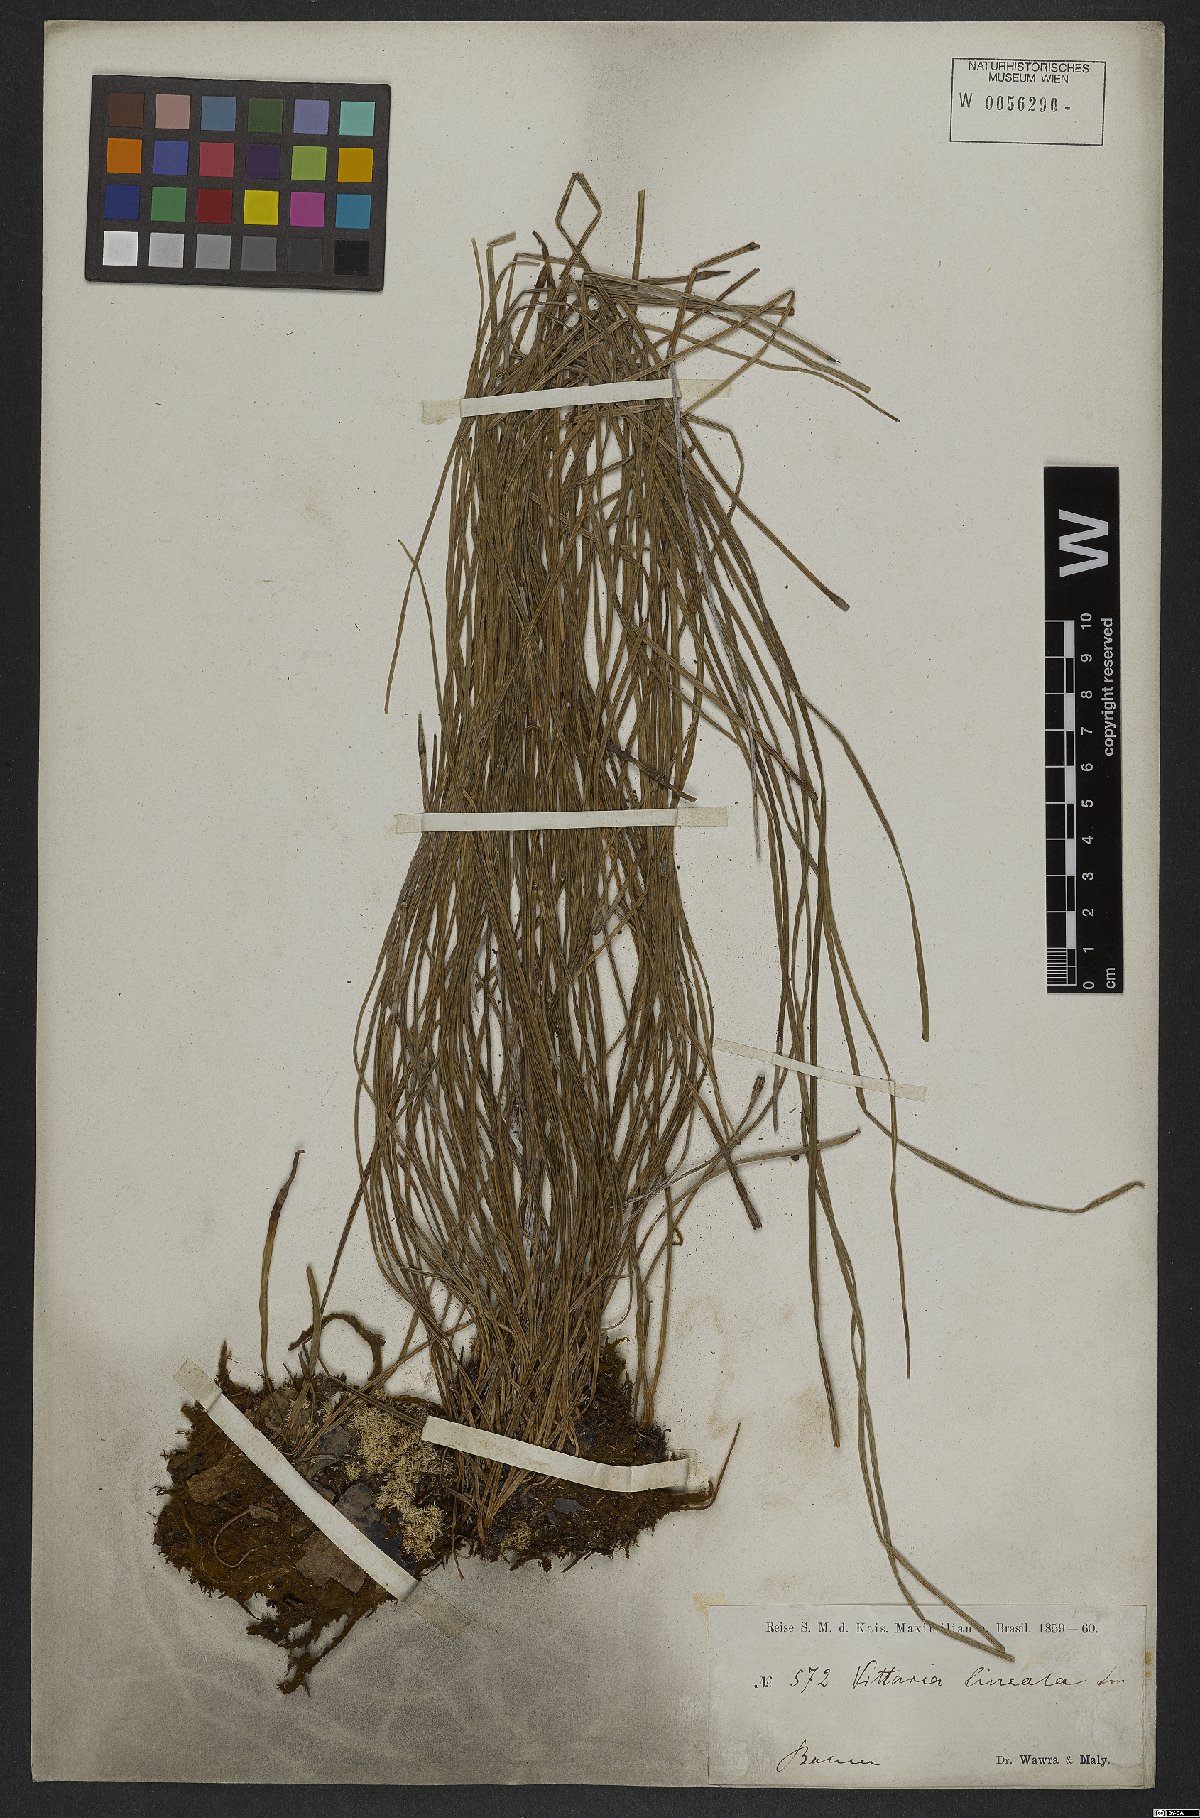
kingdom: Plantae
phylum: Tracheophyta
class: Polypodiopsida
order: Polypodiales
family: Pteridaceae
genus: Vittaria
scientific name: Vittaria lineata
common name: Shoestring fern
